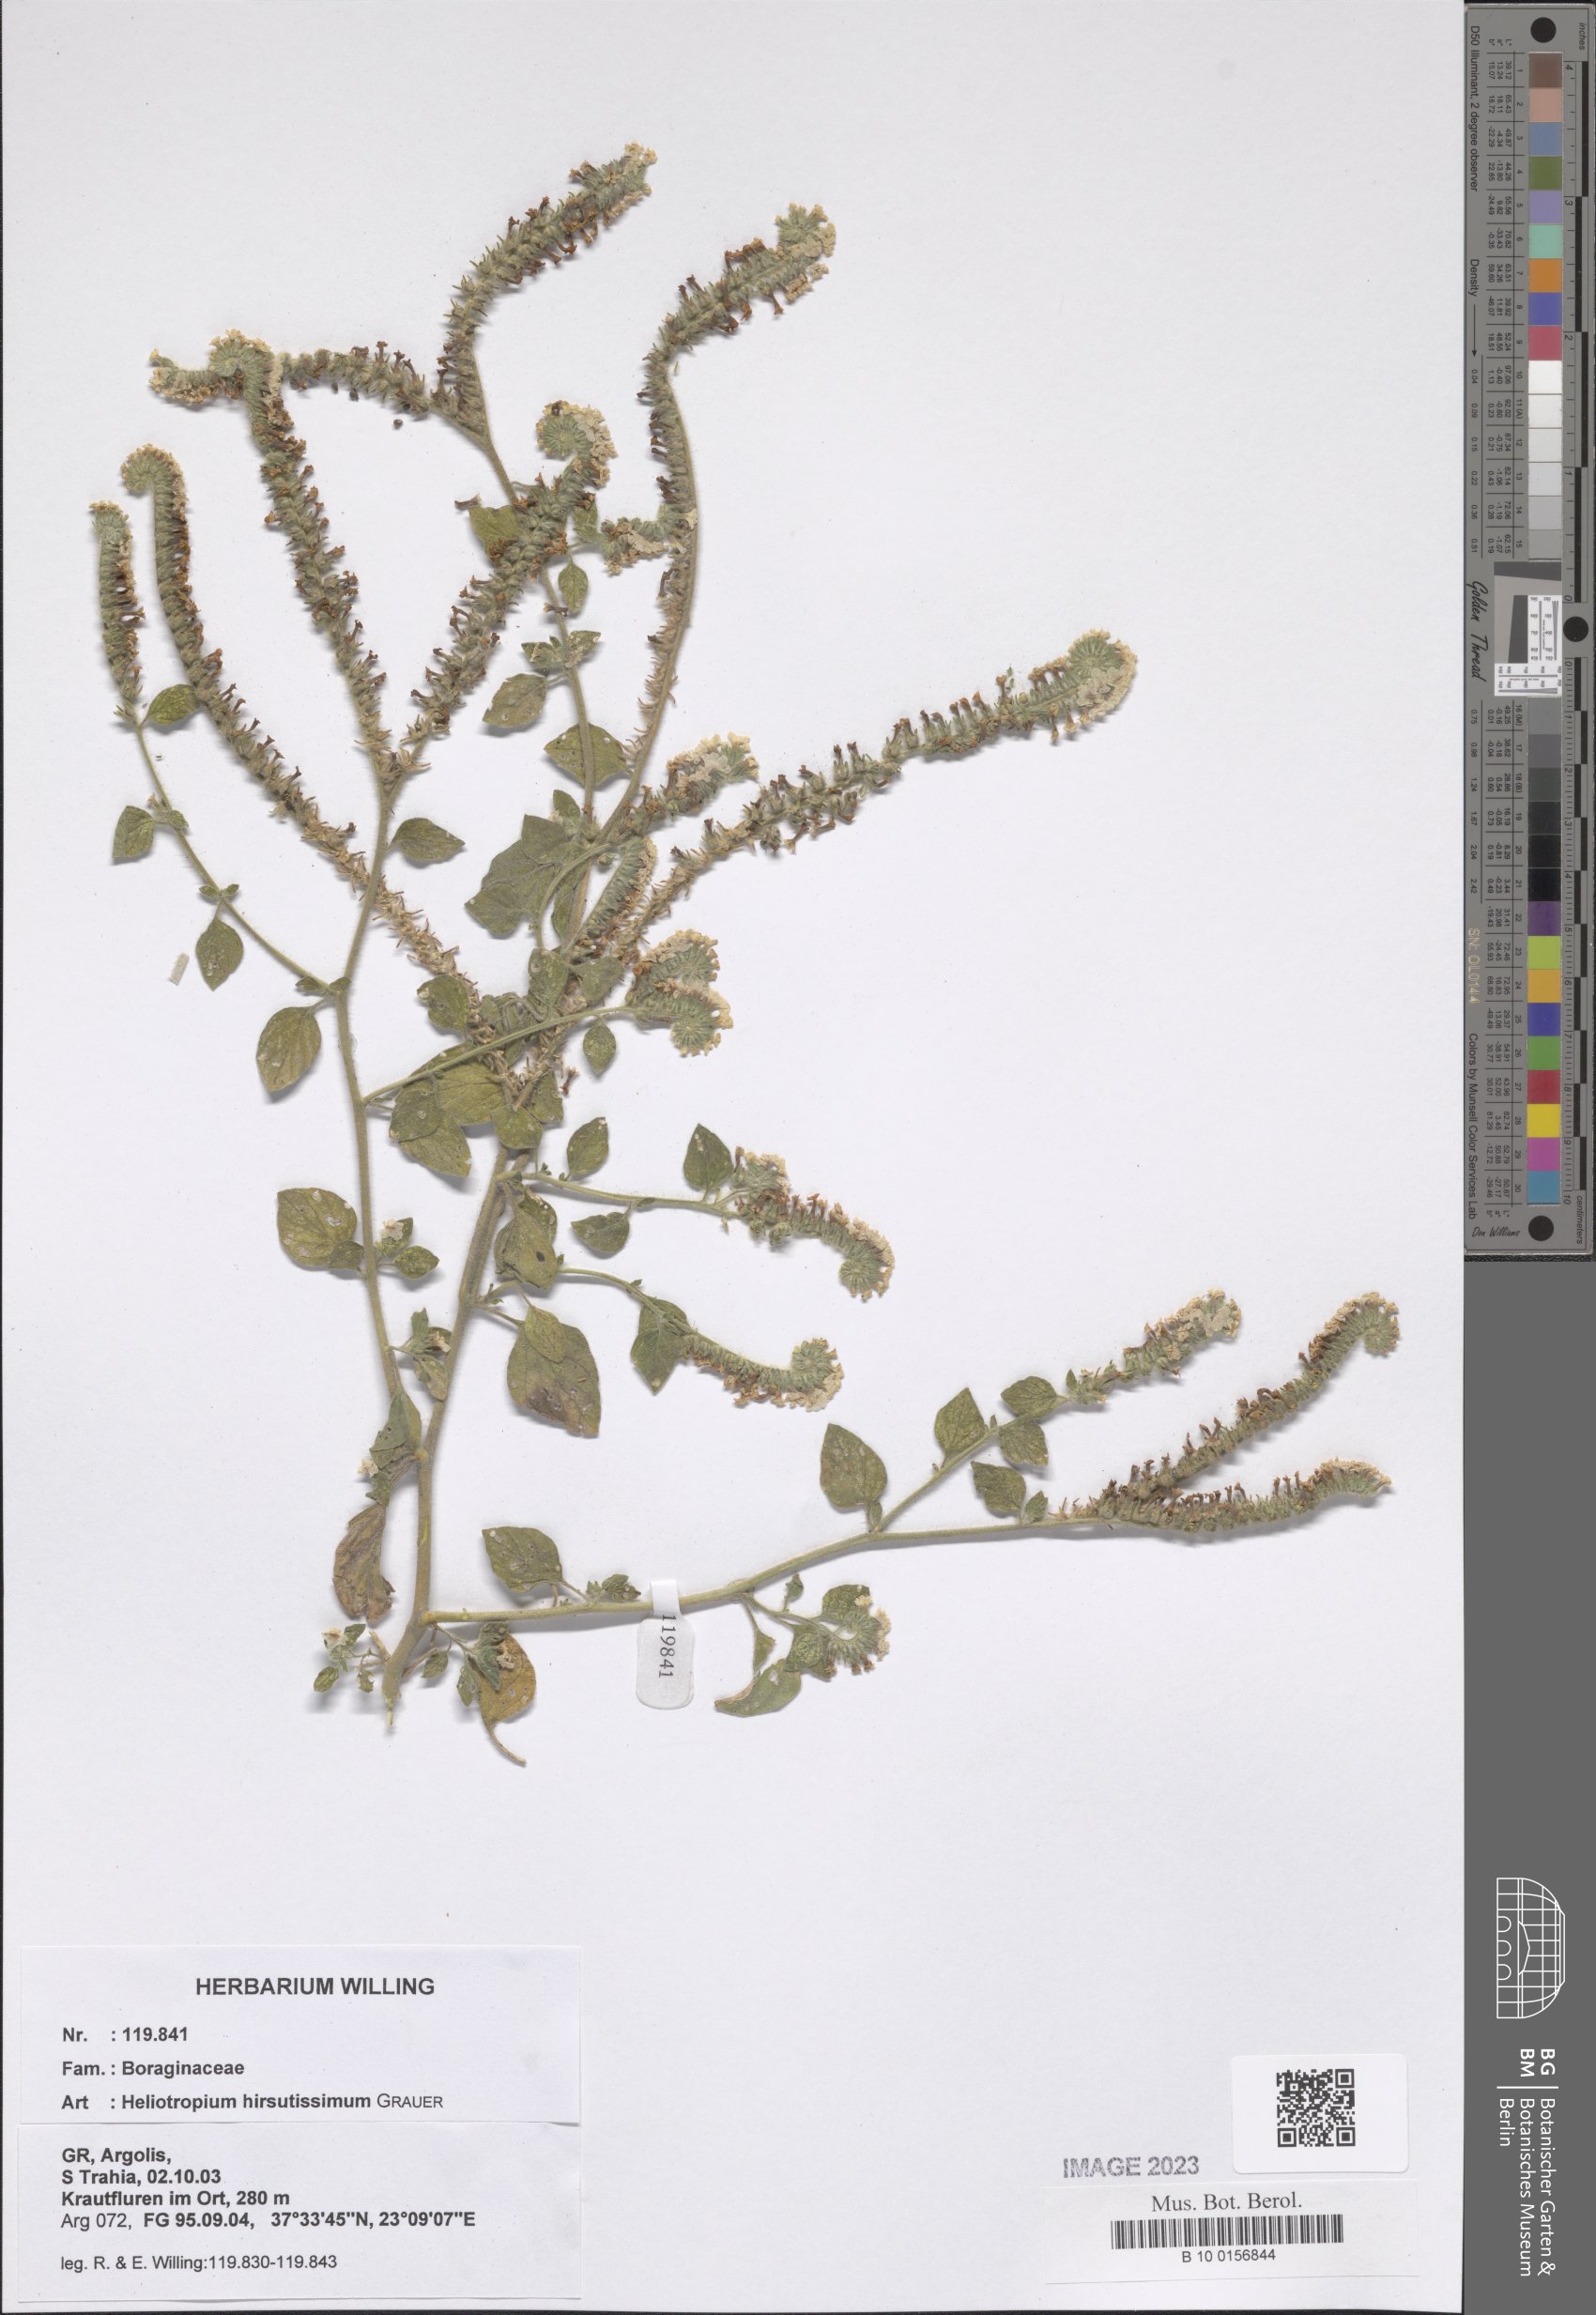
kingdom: Plantae
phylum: Tracheophyta
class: Magnoliopsida
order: Boraginales
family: Heliotropiaceae
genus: Heliotropium
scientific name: Heliotropium hirsutissimum
